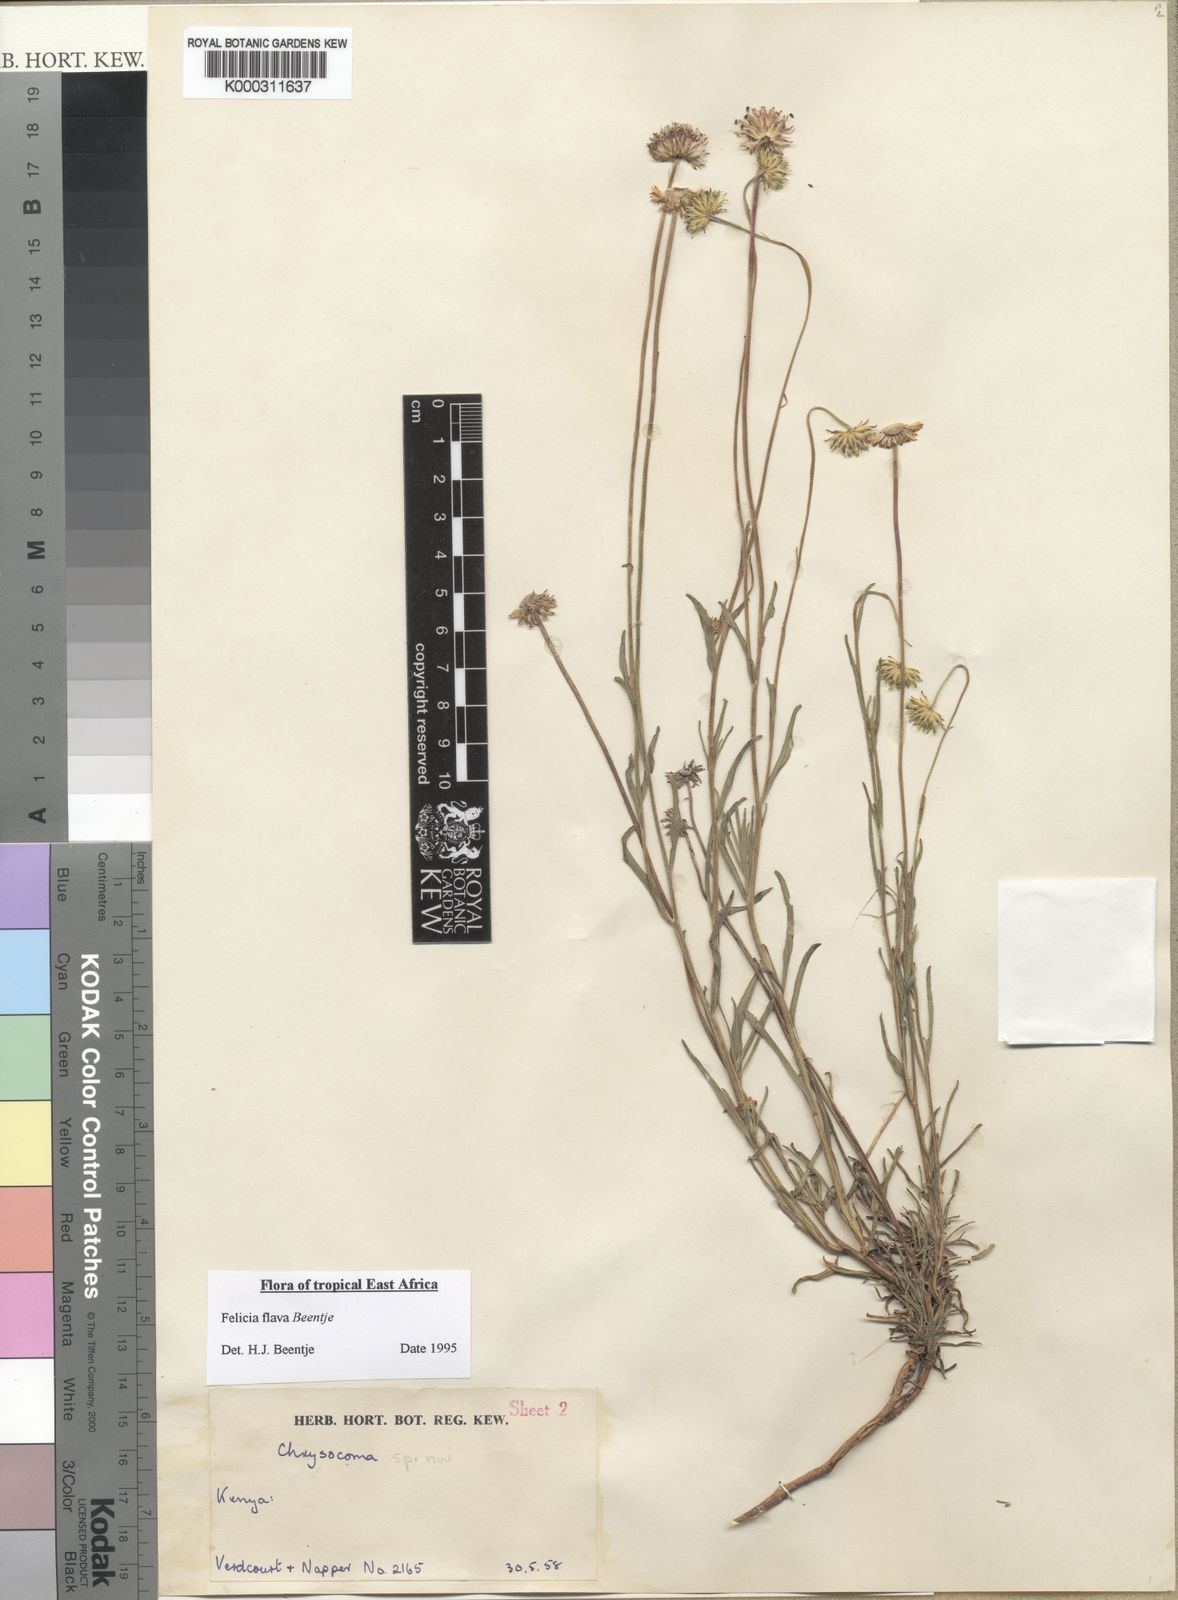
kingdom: Plantae
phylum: Tracheophyta
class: Magnoliopsida
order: Asterales
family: Asteraceae
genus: Felicia
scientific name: Felicia flava
